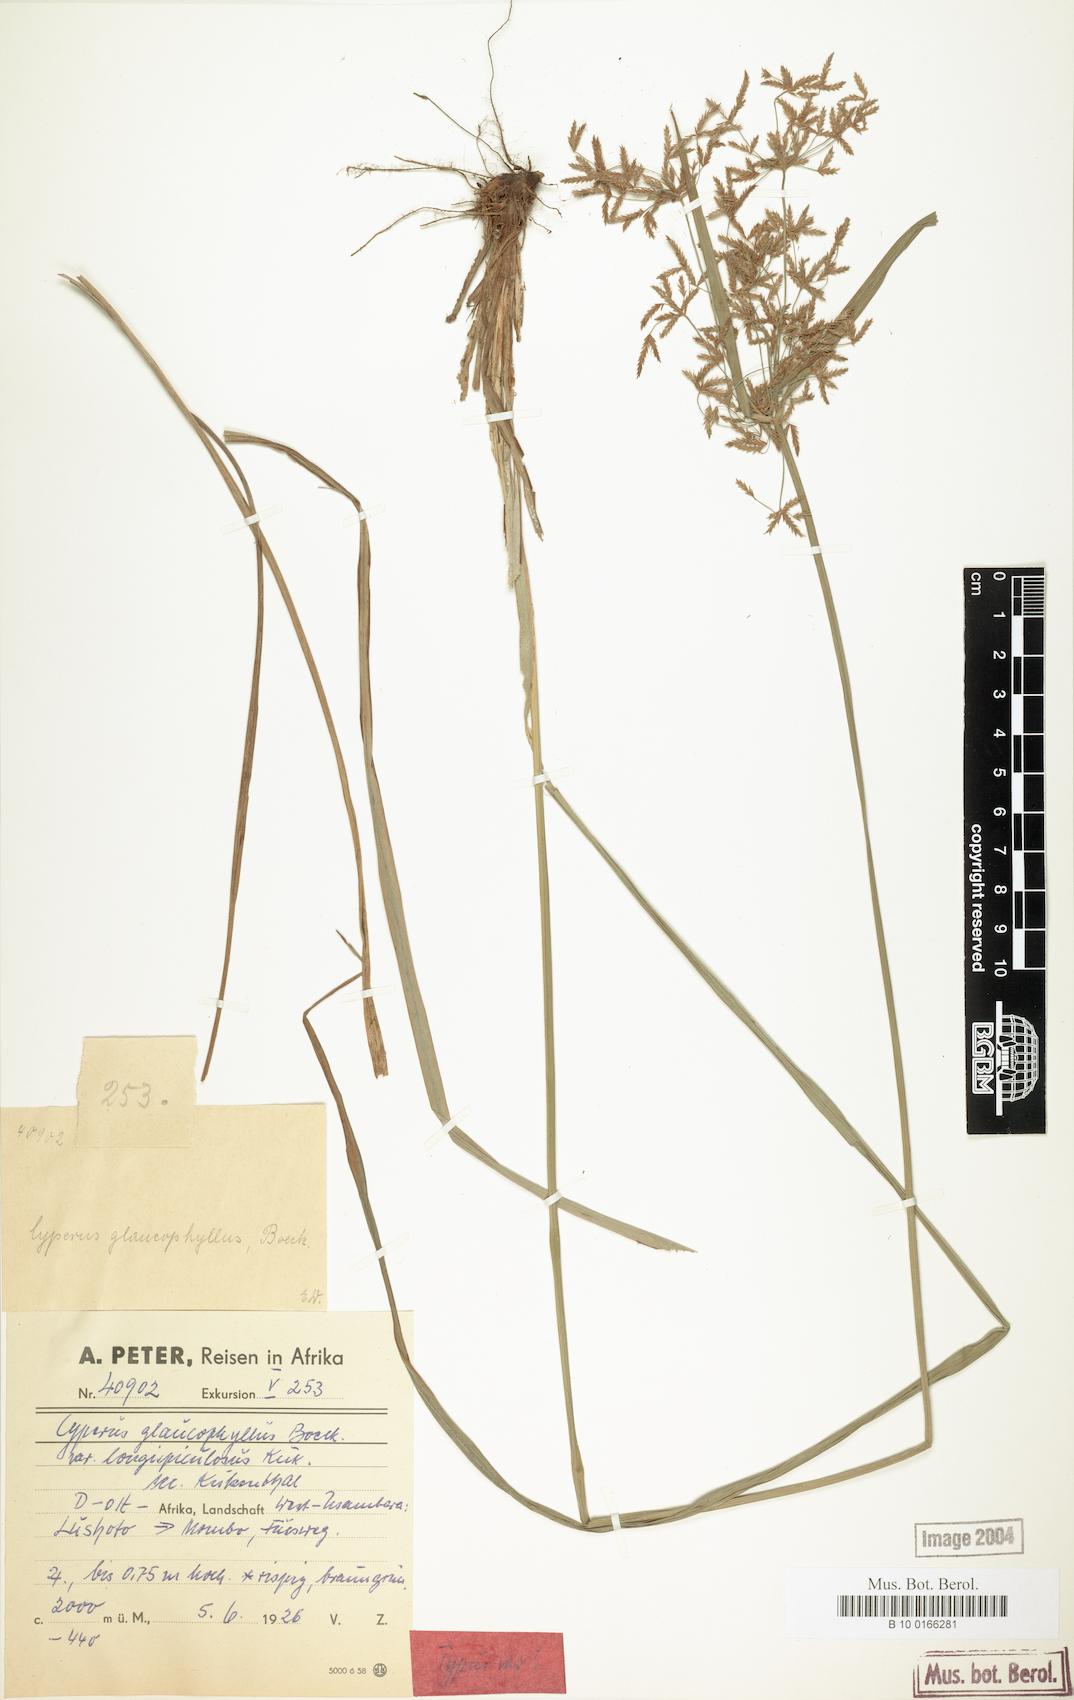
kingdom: Plantae
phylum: Tracheophyta
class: Liliopsida
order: Poales
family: Cyperaceae
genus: Cyperus
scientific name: Cyperus glaucophyllus
